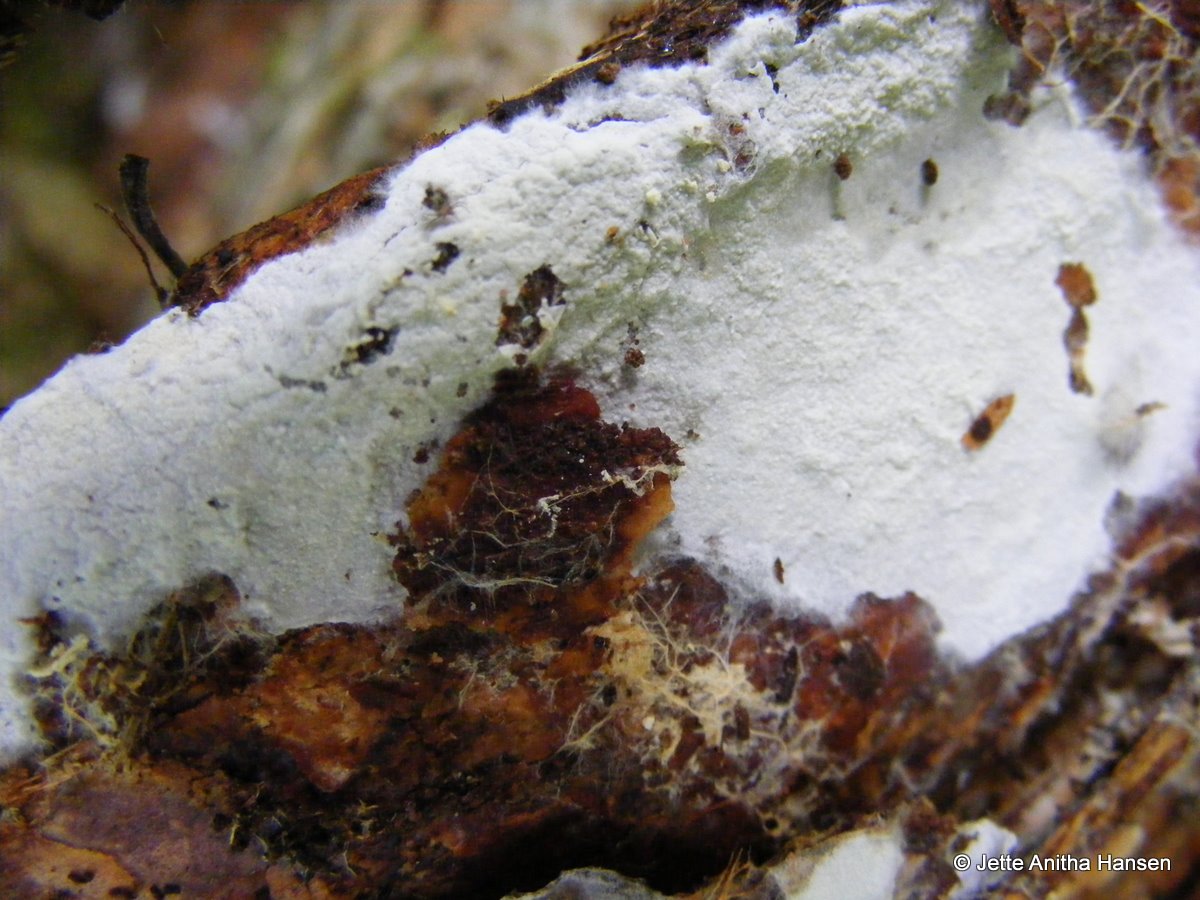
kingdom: Fungi
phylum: Basidiomycota
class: Agaricomycetes
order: Atheliales
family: Atheliaceae
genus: Leptosporomyces
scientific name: Leptosporomyces fuscostratus
